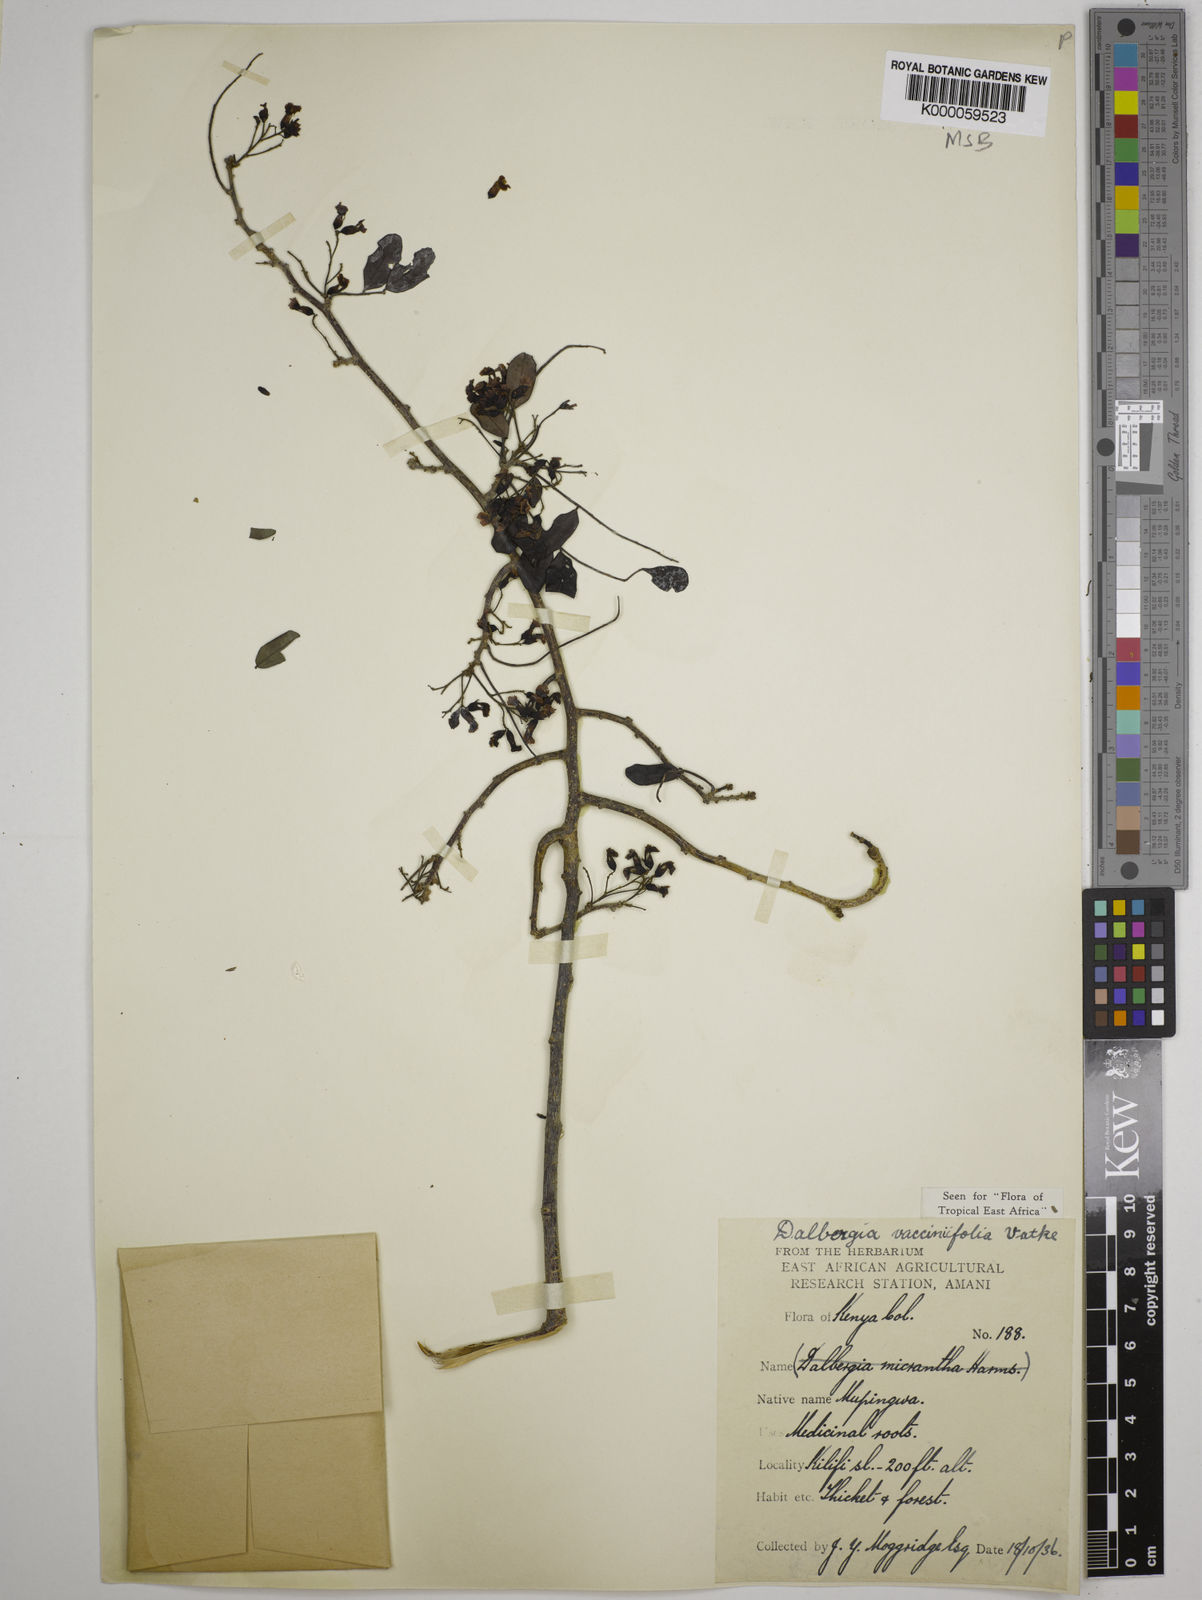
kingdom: Plantae
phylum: Tracheophyta
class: Magnoliopsida
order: Fabales
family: Fabaceae
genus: Dalbergia
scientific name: Dalbergia vacciniifolia
